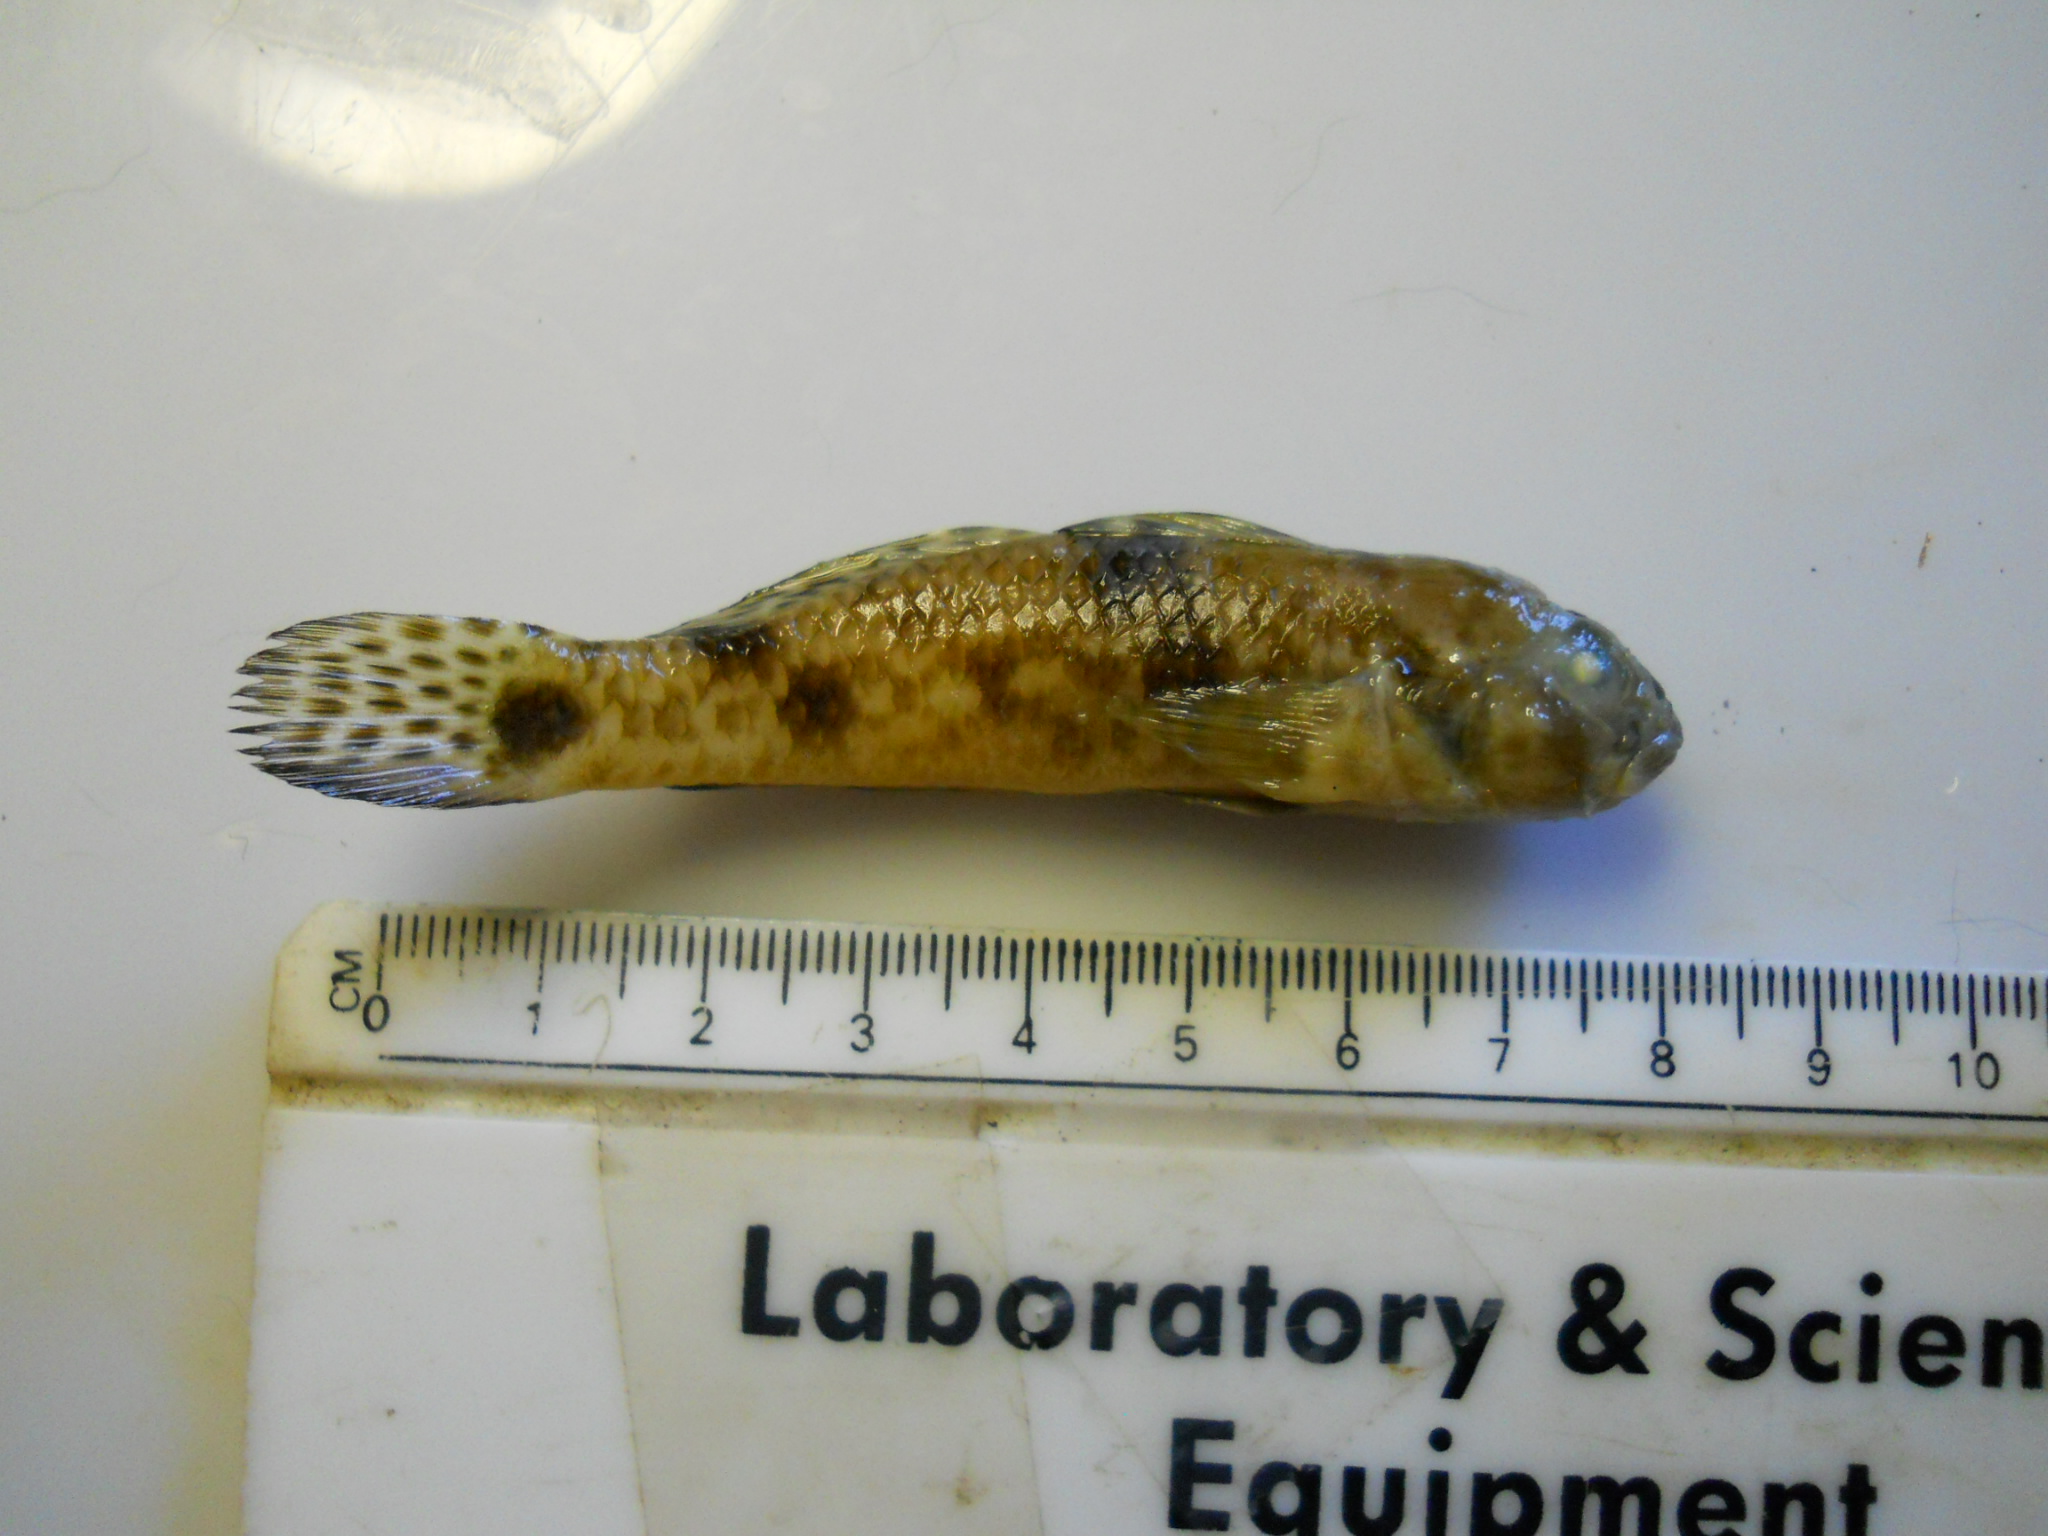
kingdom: Animalia
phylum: Chordata
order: Perciformes
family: Gobiidae
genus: Acentrogobius
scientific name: Acentrogobius nebulosus
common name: Shadow goby
